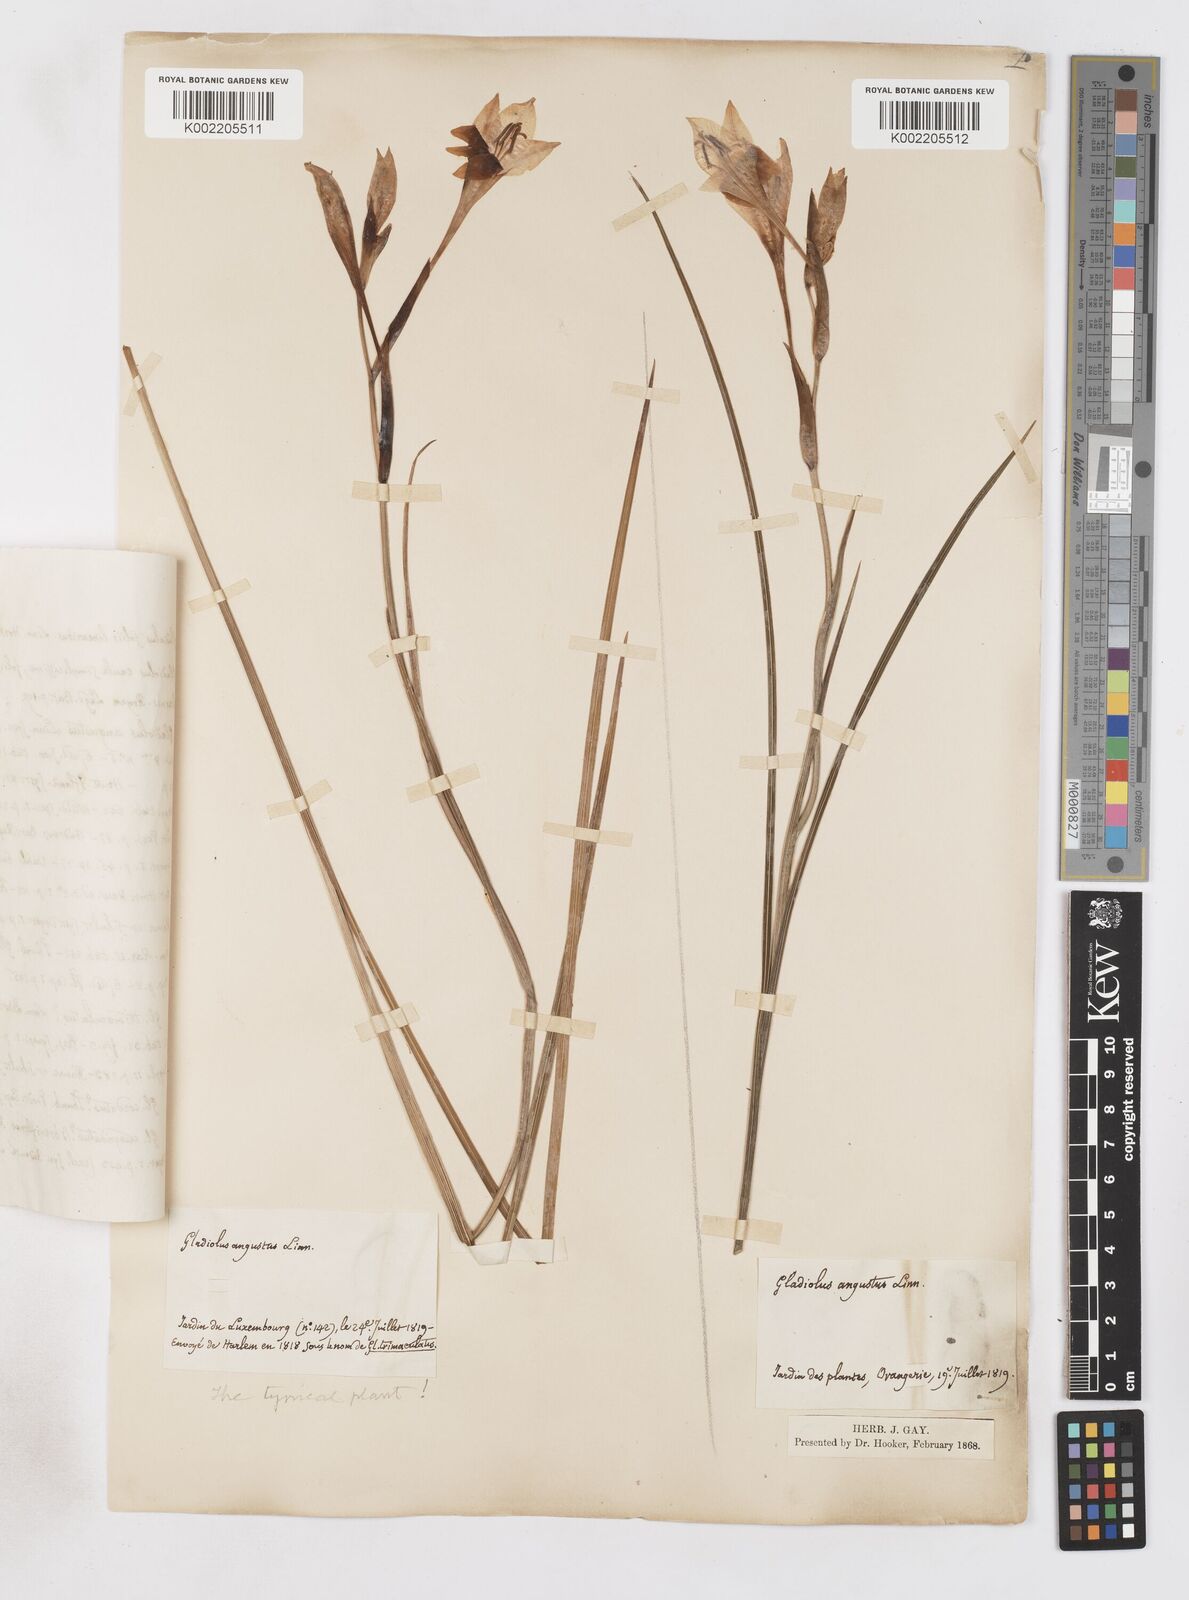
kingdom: Plantae
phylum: Tracheophyta
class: Liliopsida
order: Asparagales
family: Iridaceae
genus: Gladiolus
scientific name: Gladiolus angustus
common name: Painted-lady
